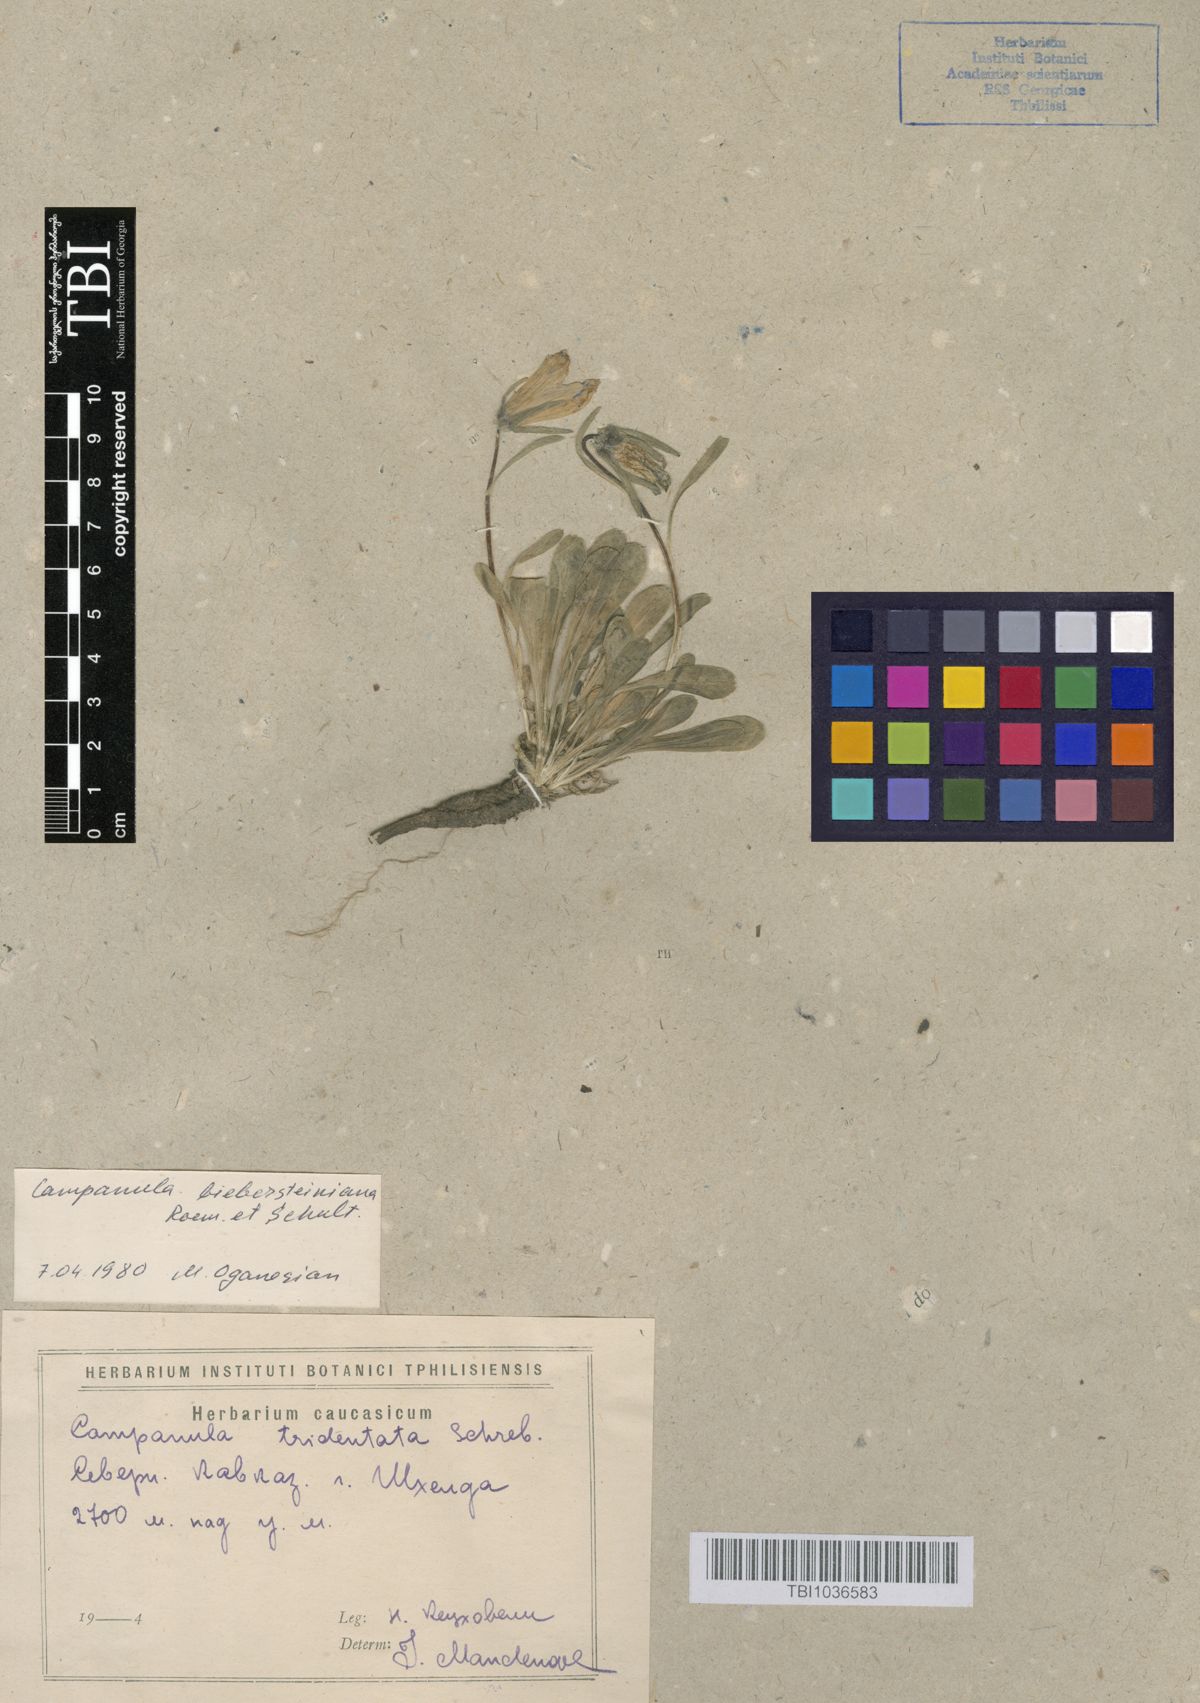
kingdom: Plantae
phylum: Tracheophyta
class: Magnoliopsida
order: Asterales
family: Campanulaceae
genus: Campanula
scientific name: Campanula tridentata
